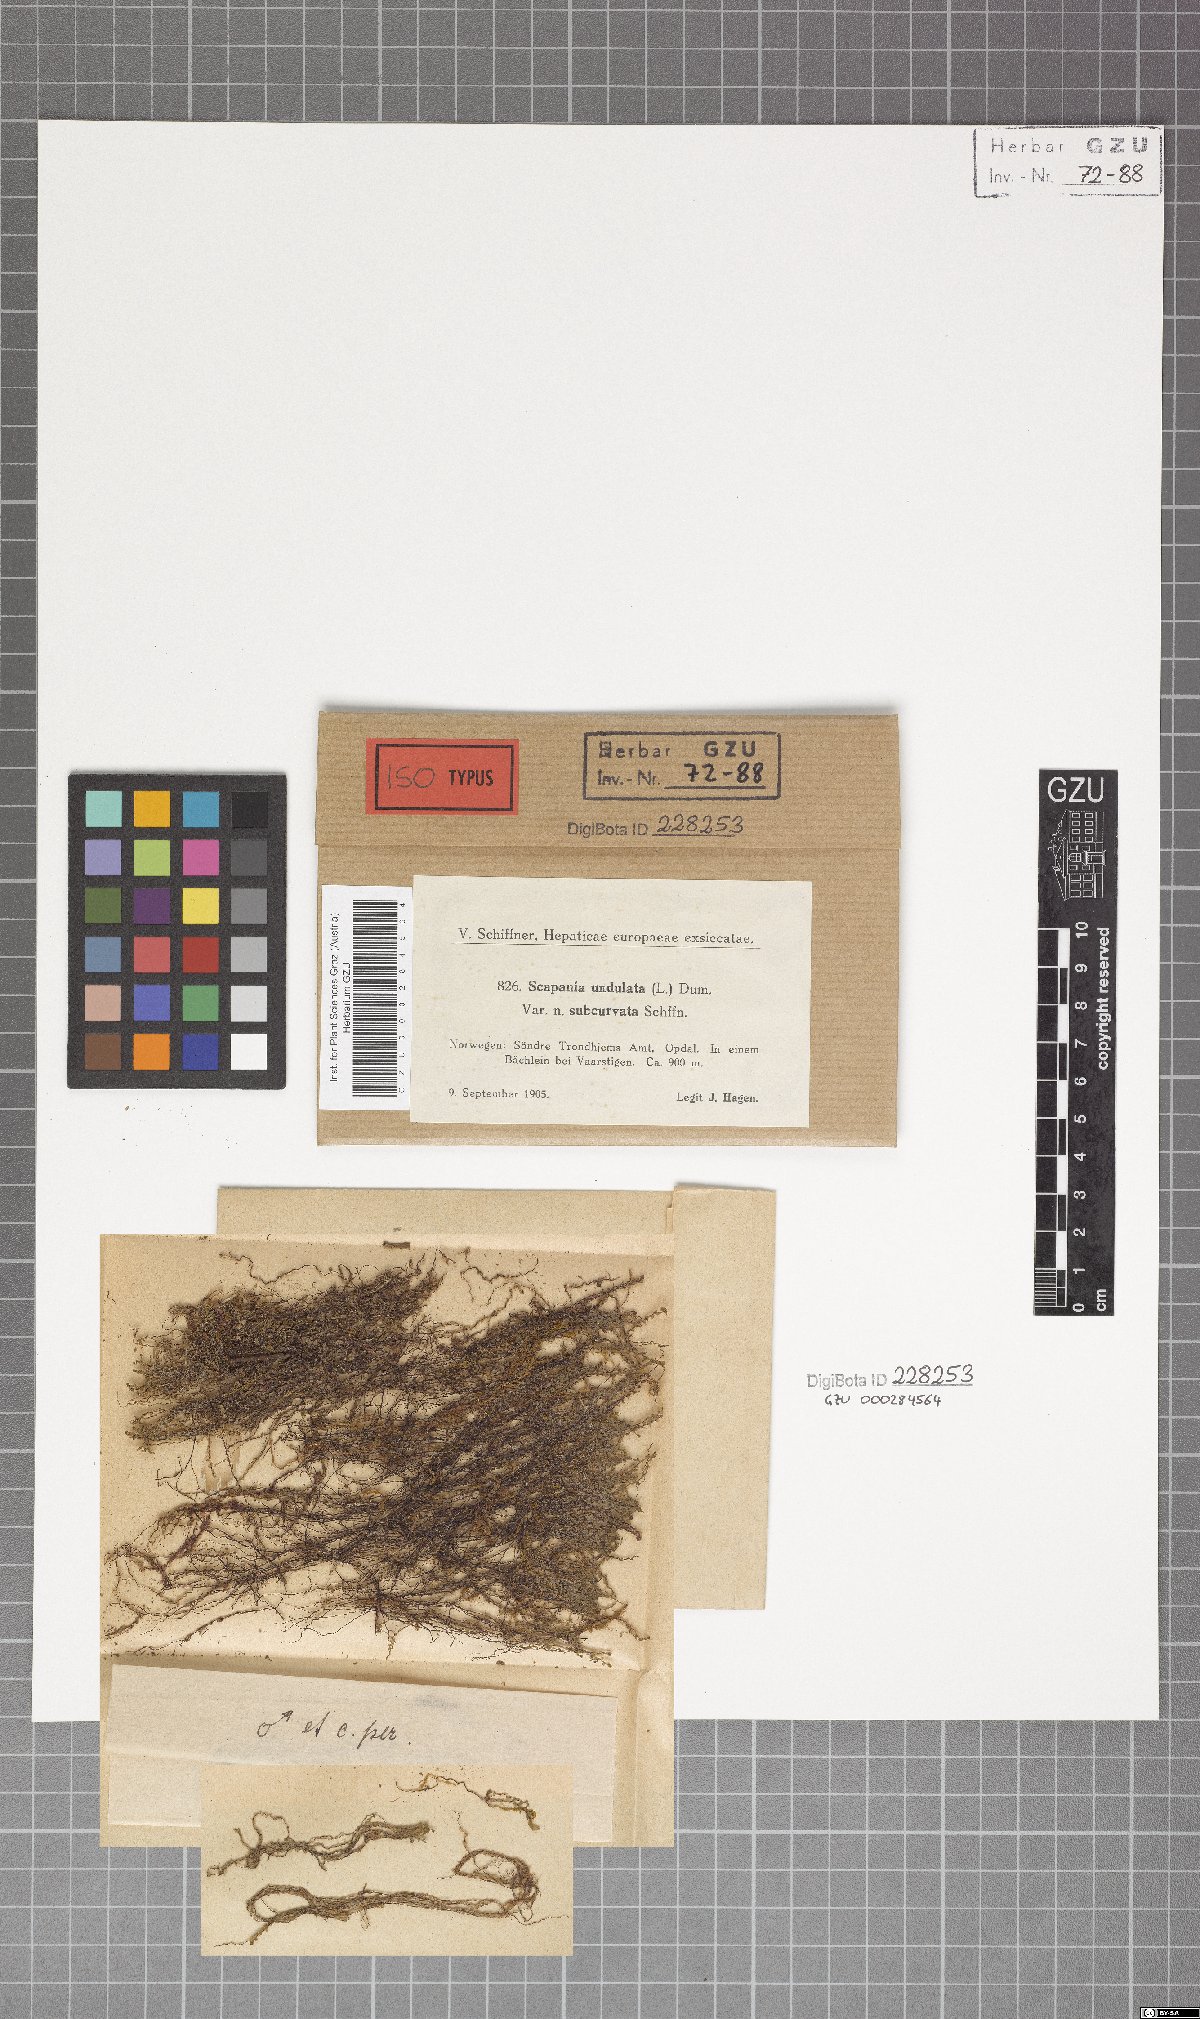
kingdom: Plantae
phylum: Marchantiophyta
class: Jungermanniopsida
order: Jungermanniales
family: Scapaniaceae
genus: Scapania
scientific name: Scapania undulata
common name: Water earwort
